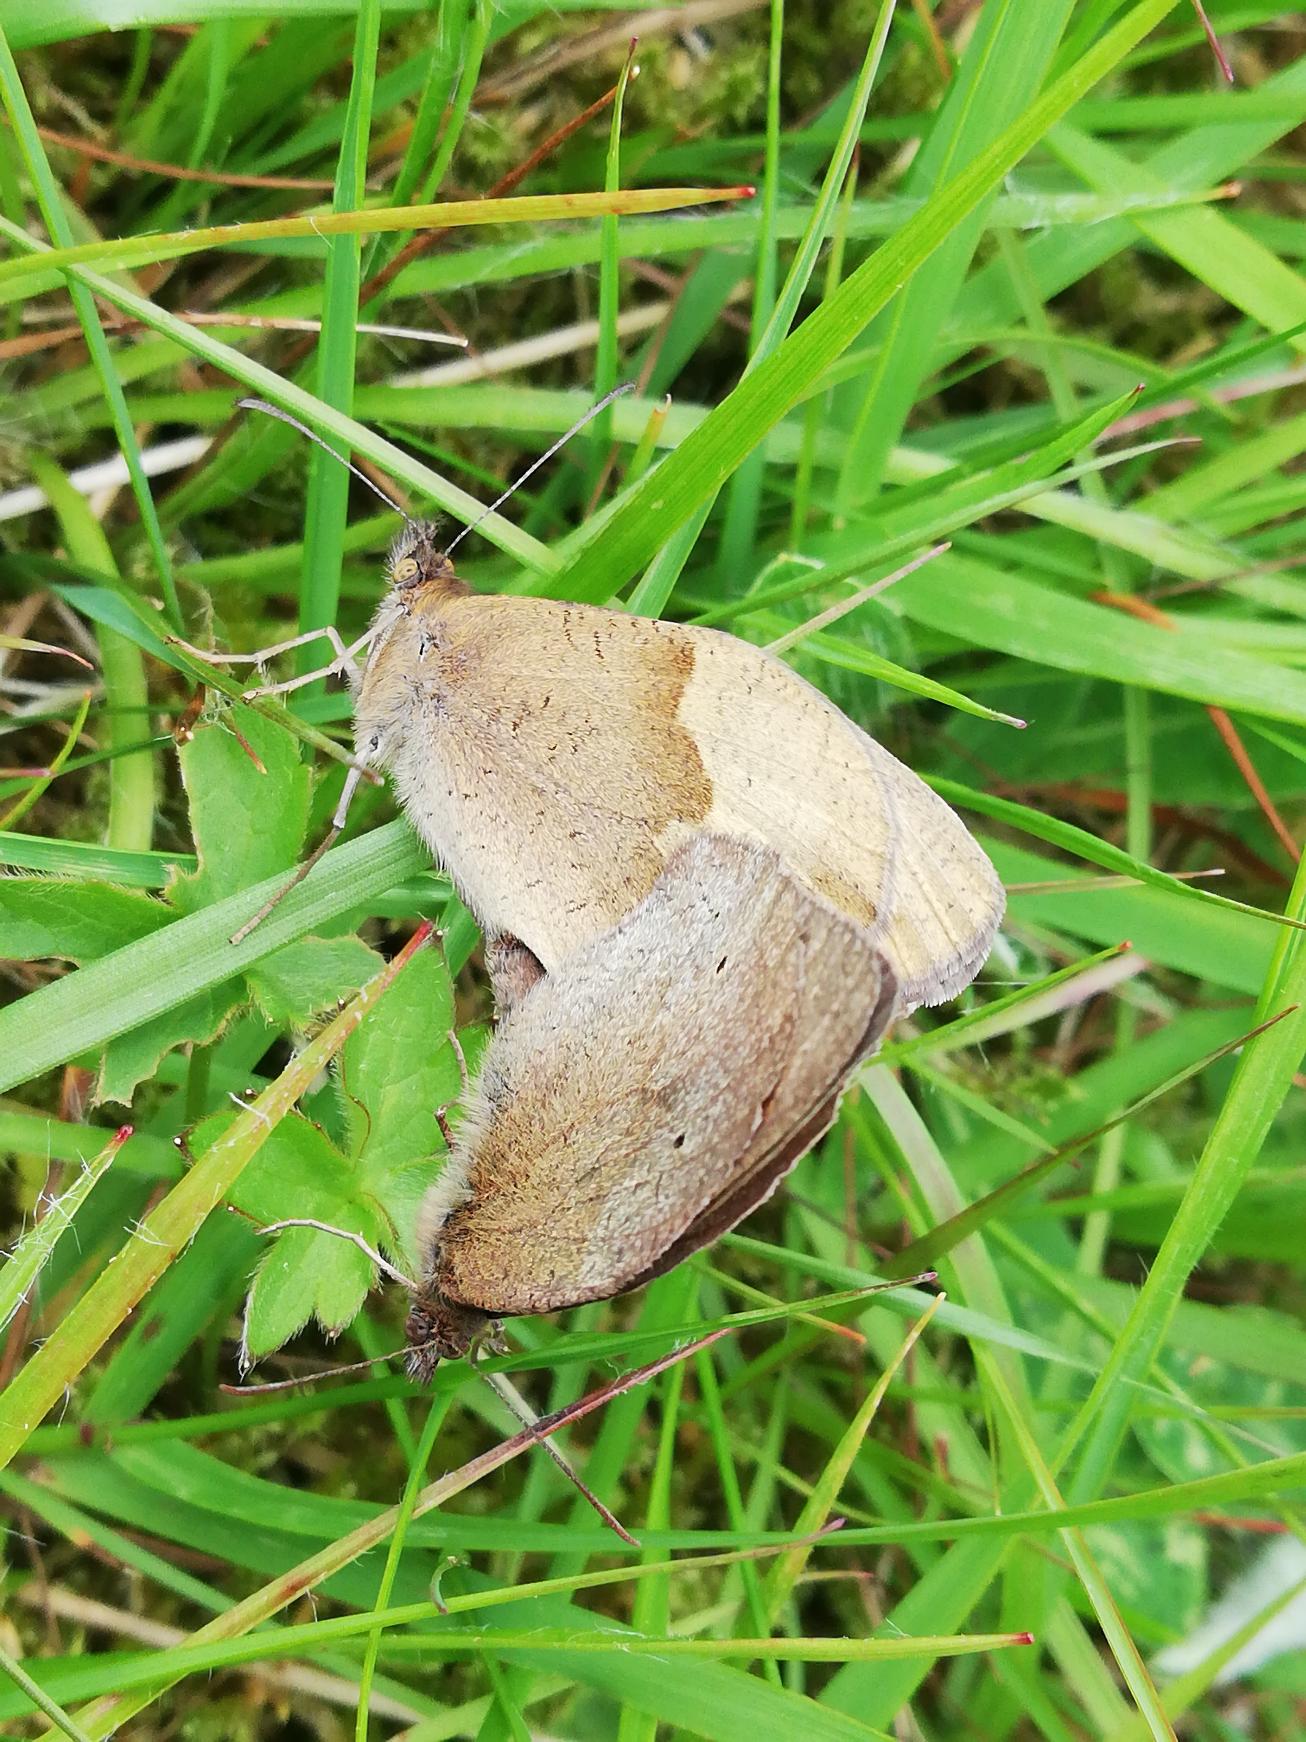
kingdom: Animalia
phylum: Arthropoda
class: Insecta
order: Lepidoptera
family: Nymphalidae
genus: Maniola
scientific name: Maniola jurtina
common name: Græsrandøje
